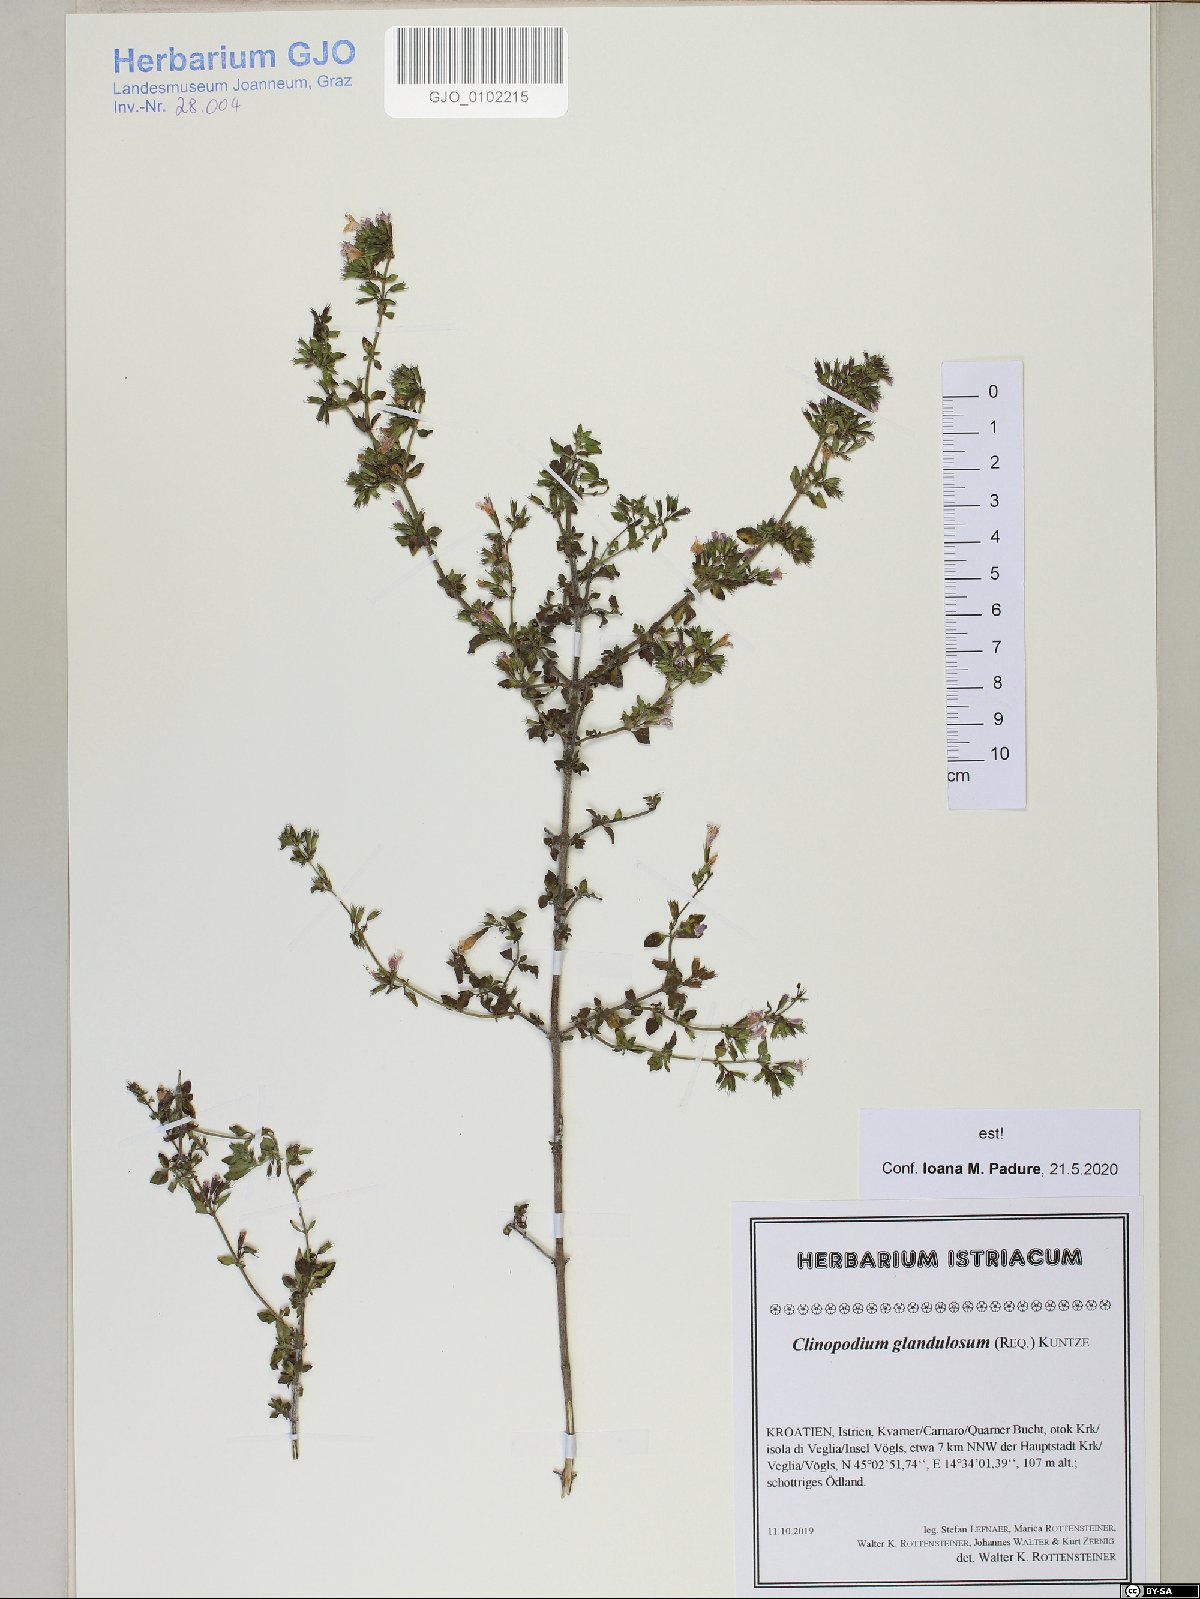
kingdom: Plantae
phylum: Tracheophyta
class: Magnoliopsida
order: Lamiales
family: Lamiaceae
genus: Clinopodium
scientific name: Clinopodium nepeta
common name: Lesser calamint
